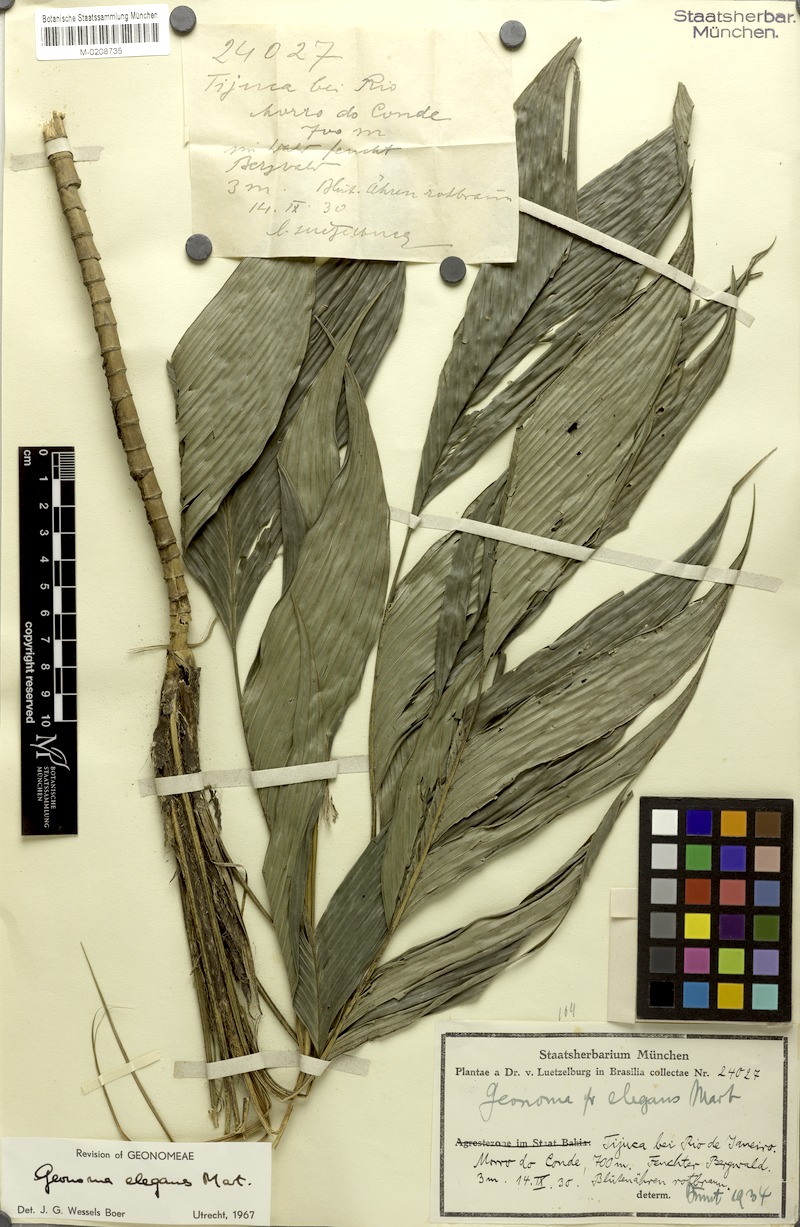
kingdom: Plantae
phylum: Tracheophyta
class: Liliopsida
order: Arecales
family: Arecaceae
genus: Geonoma
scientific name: Geonoma elegans
